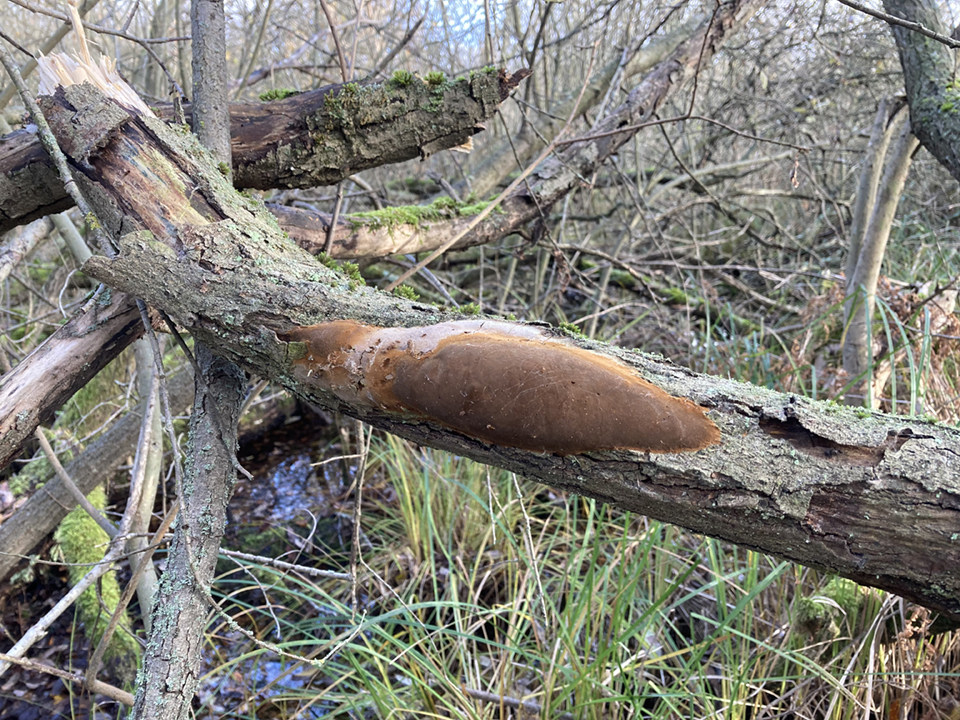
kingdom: Fungi
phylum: Basidiomycota
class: Agaricomycetes
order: Hymenochaetales
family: Hymenochaetaceae
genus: Fomitiporia
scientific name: Fomitiporia punctata
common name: pude-ildporesvamp
